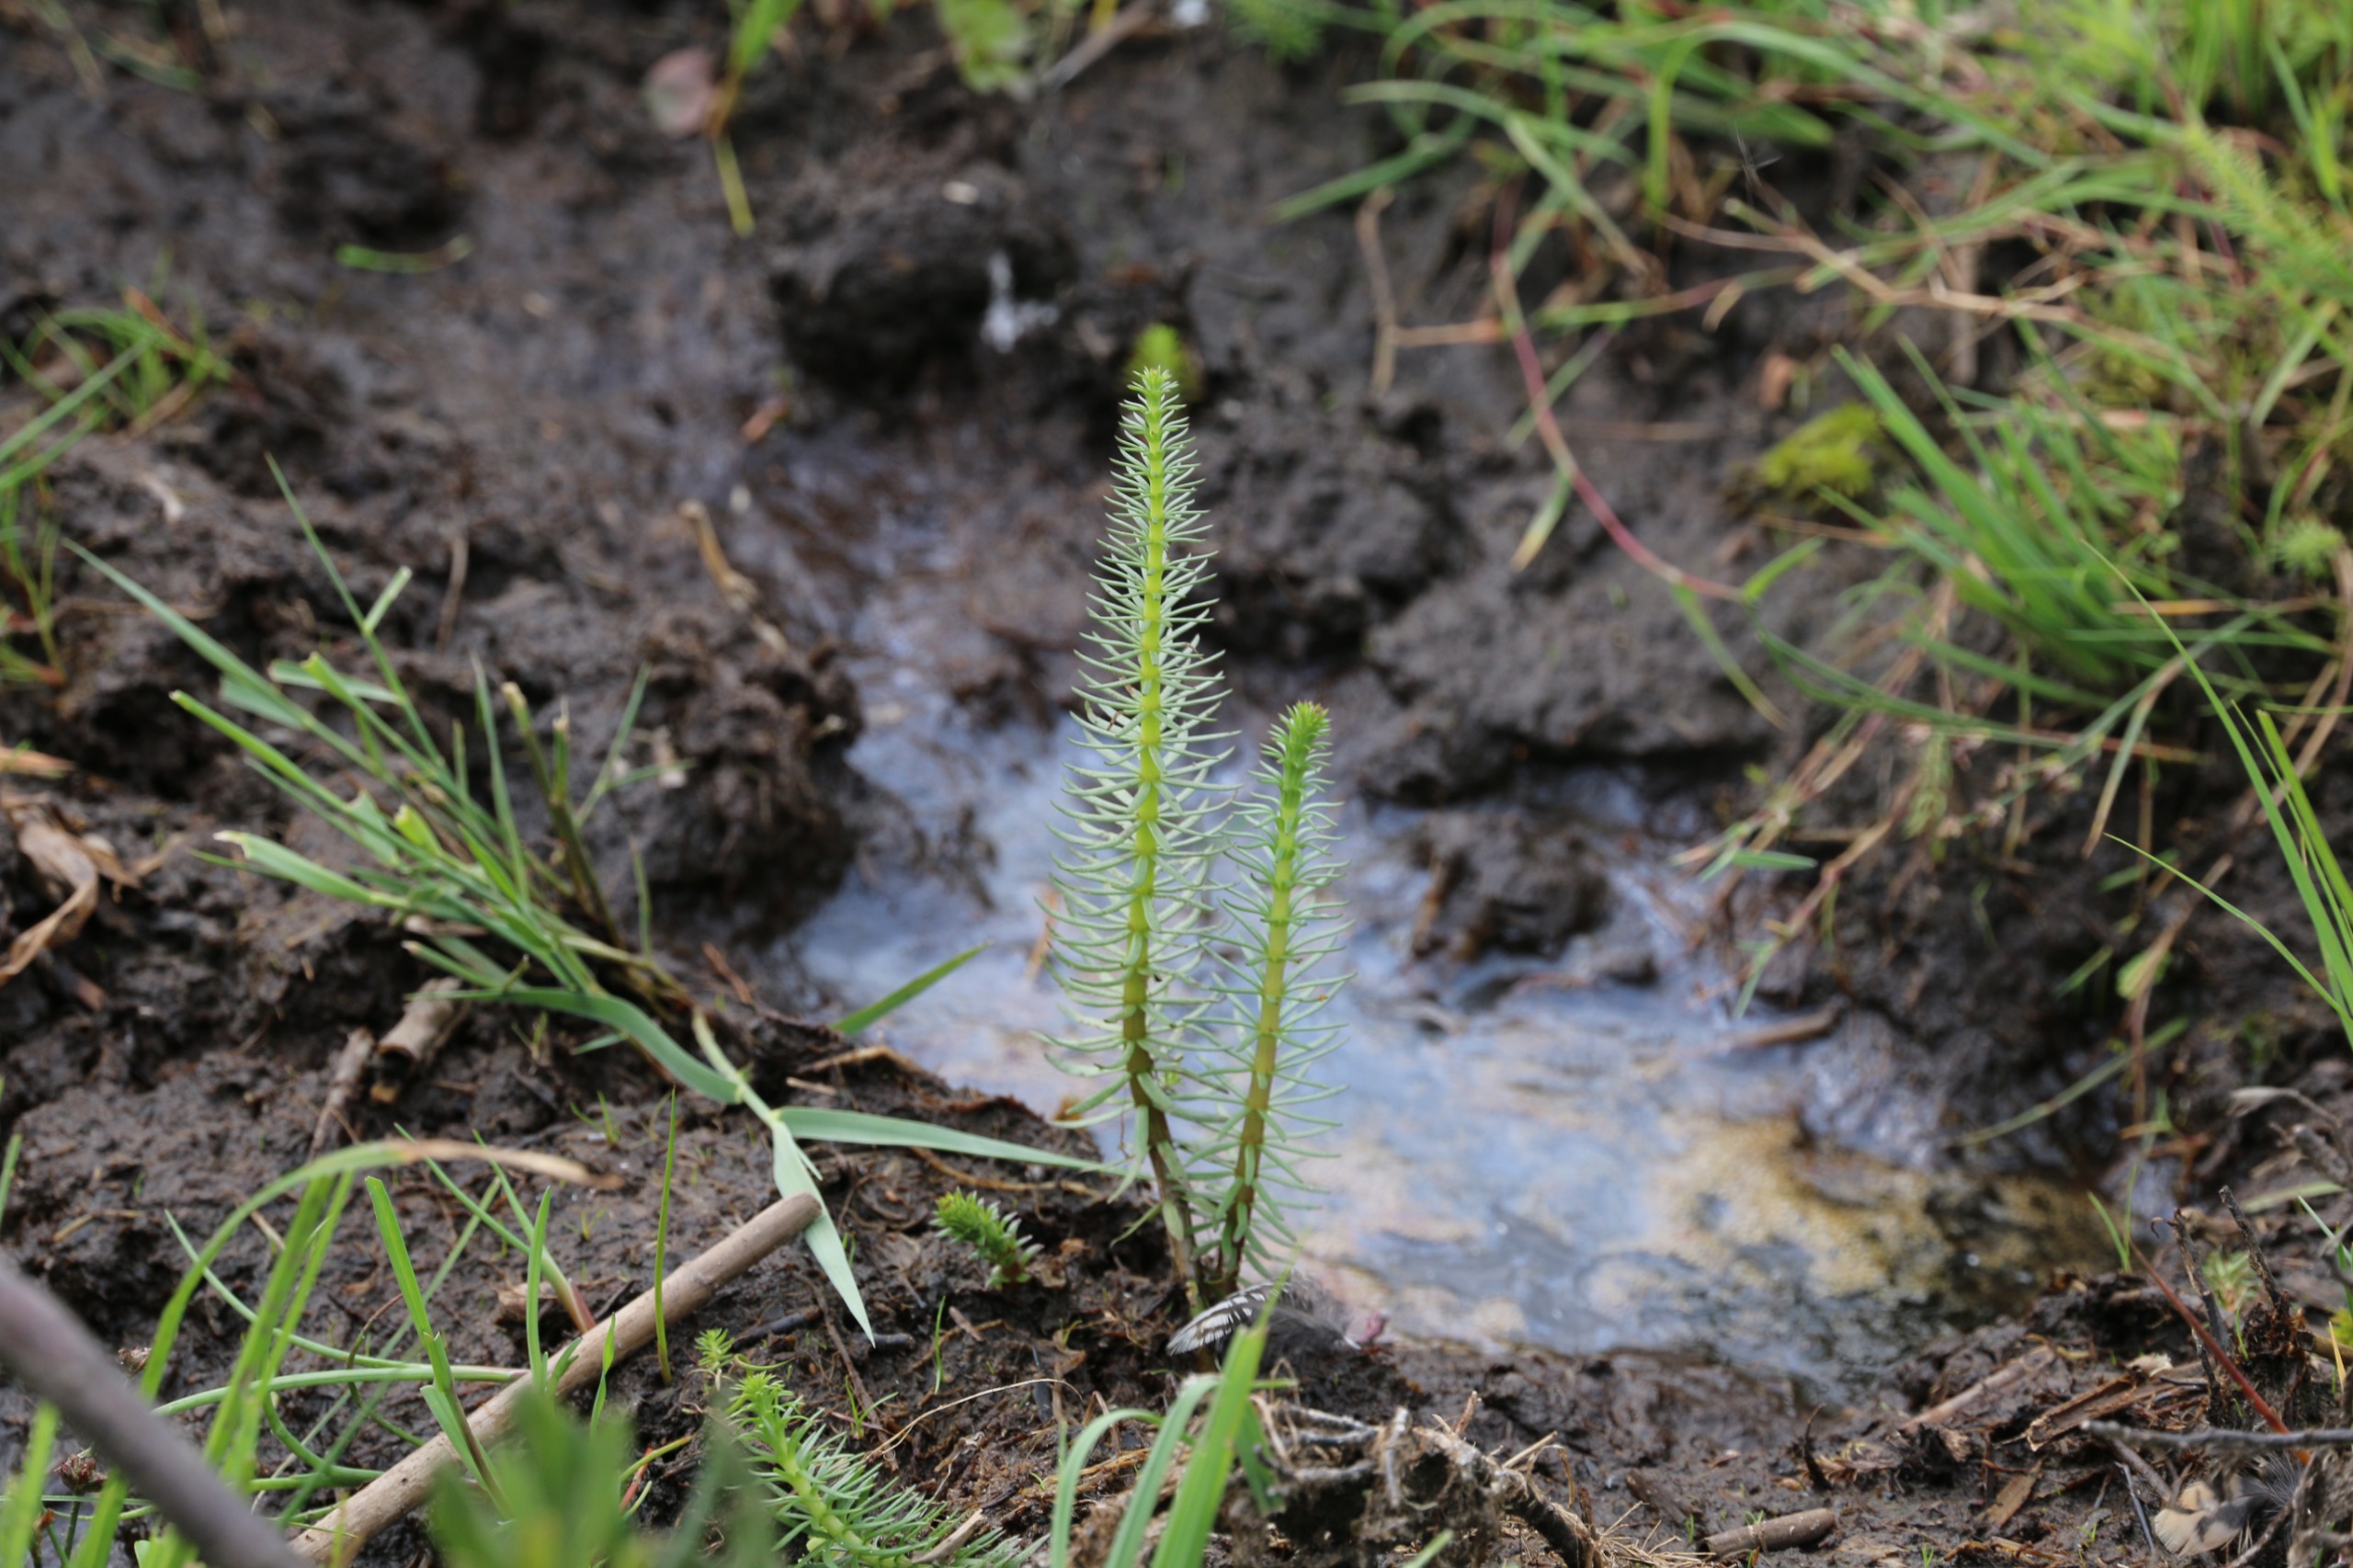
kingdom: Plantae
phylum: Tracheophyta
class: Magnoliopsida
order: Lamiales
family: Plantaginaceae
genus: Hippuris
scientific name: Hippuris vulgaris
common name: Vandspir
